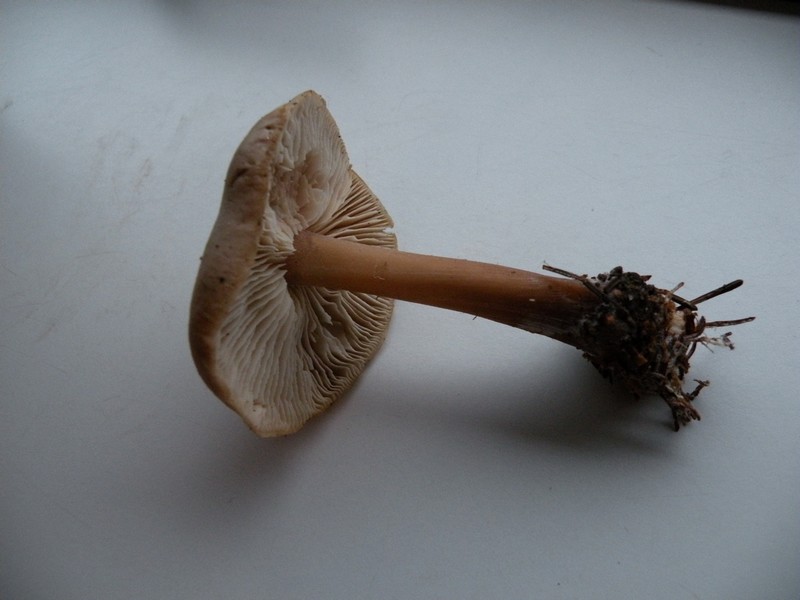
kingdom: Fungi
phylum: Basidiomycota
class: Agaricomycetes
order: Agaricales
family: Omphalotaceae
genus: Rhodocollybia
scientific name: Rhodocollybia asema
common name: horngrå fladhat
